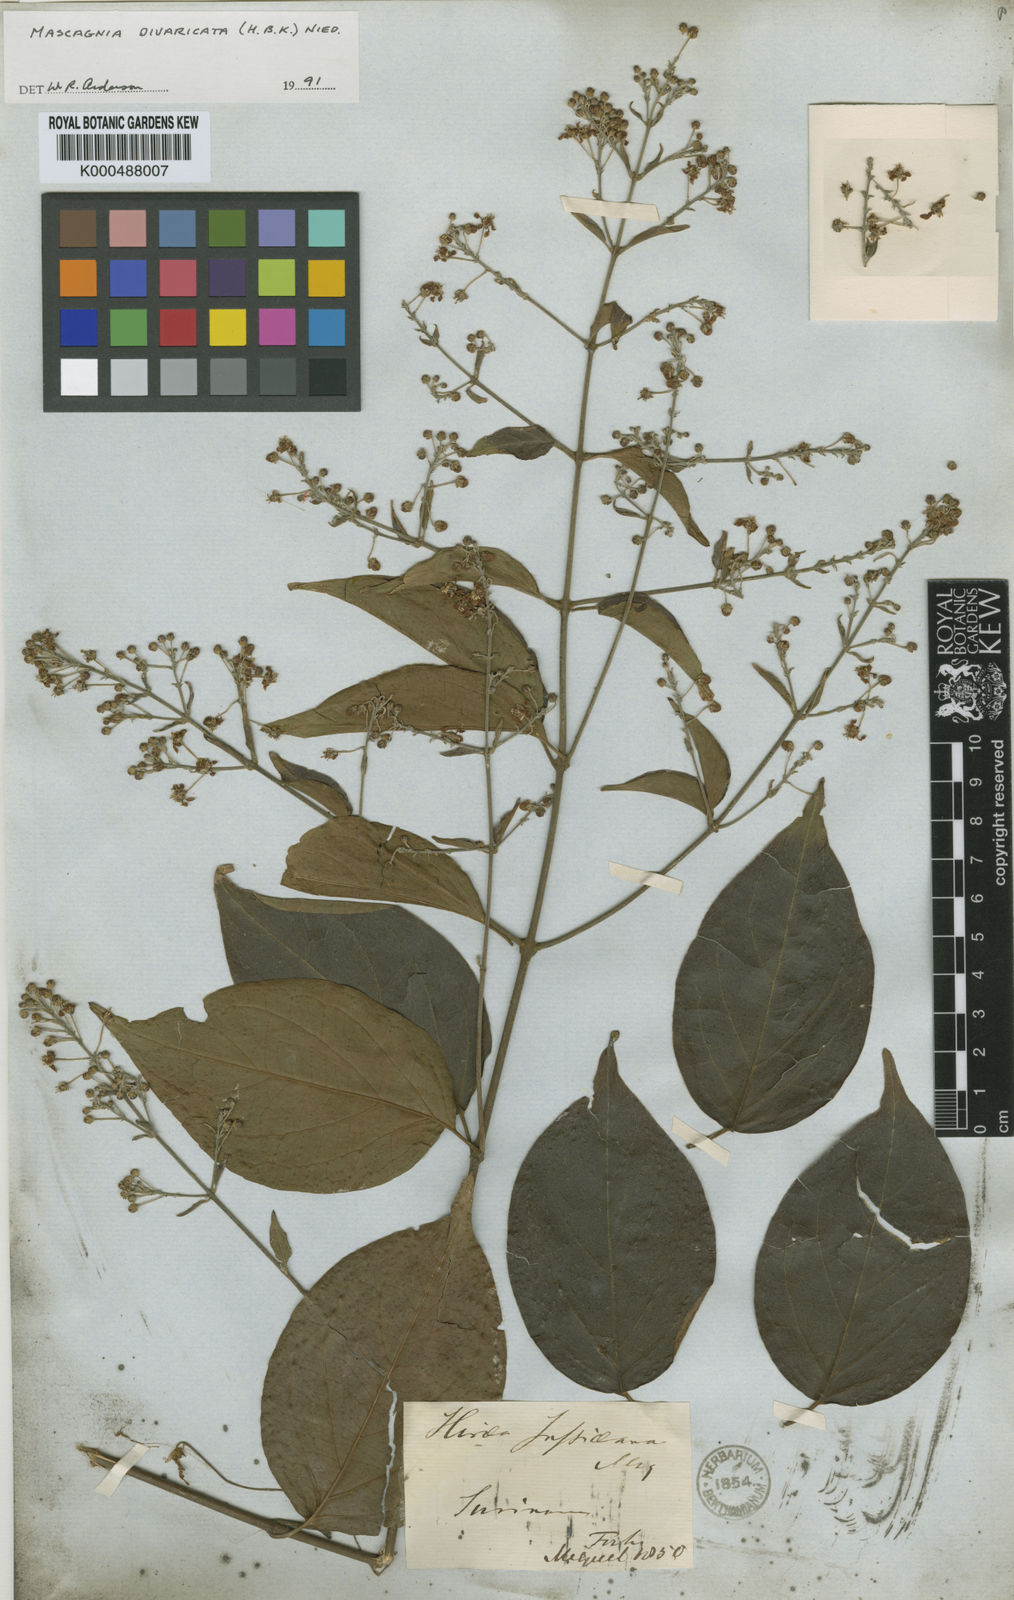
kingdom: Plantae
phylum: Tracheophyta
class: Magnoliopsida
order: Malpighiales
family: Malpighiaceae
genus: Mascagnia
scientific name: Mascagnia divaricata
